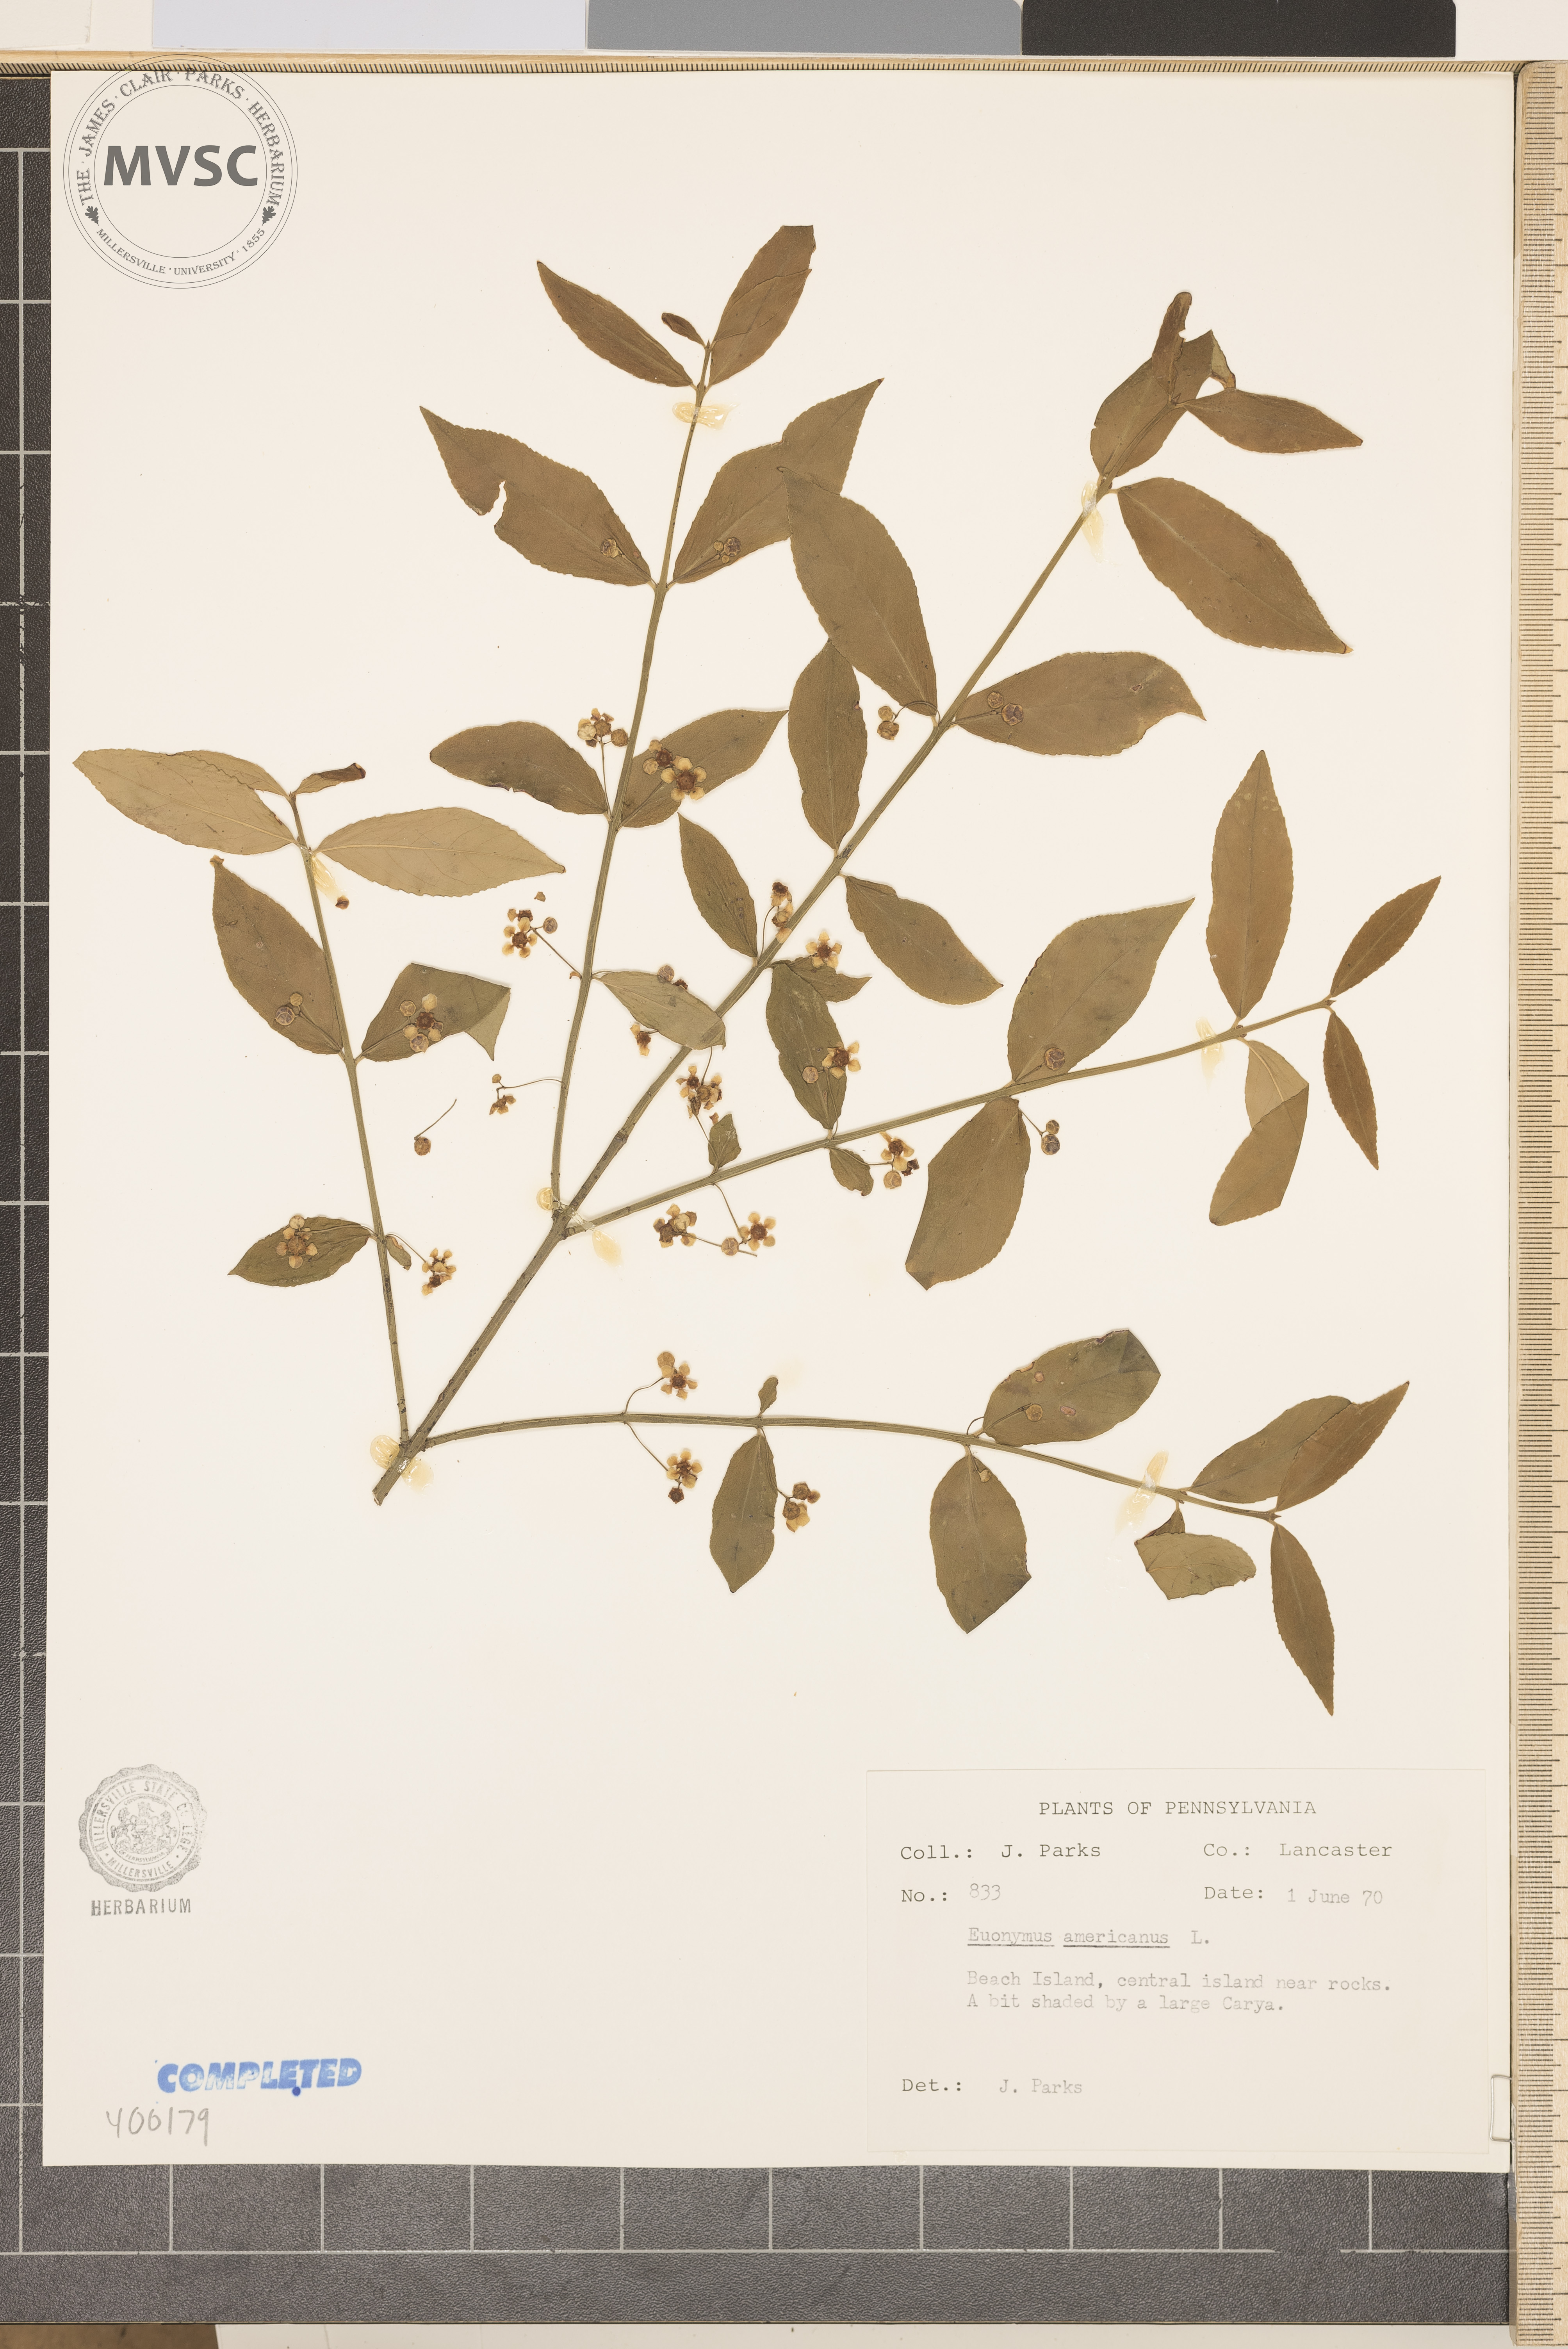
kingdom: Plantae
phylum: Tracheophyta
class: Magnoliopsida
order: Celastrales
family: Celastraceae
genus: Euonymus
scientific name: Euonymus americanus
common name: bursting-heart
